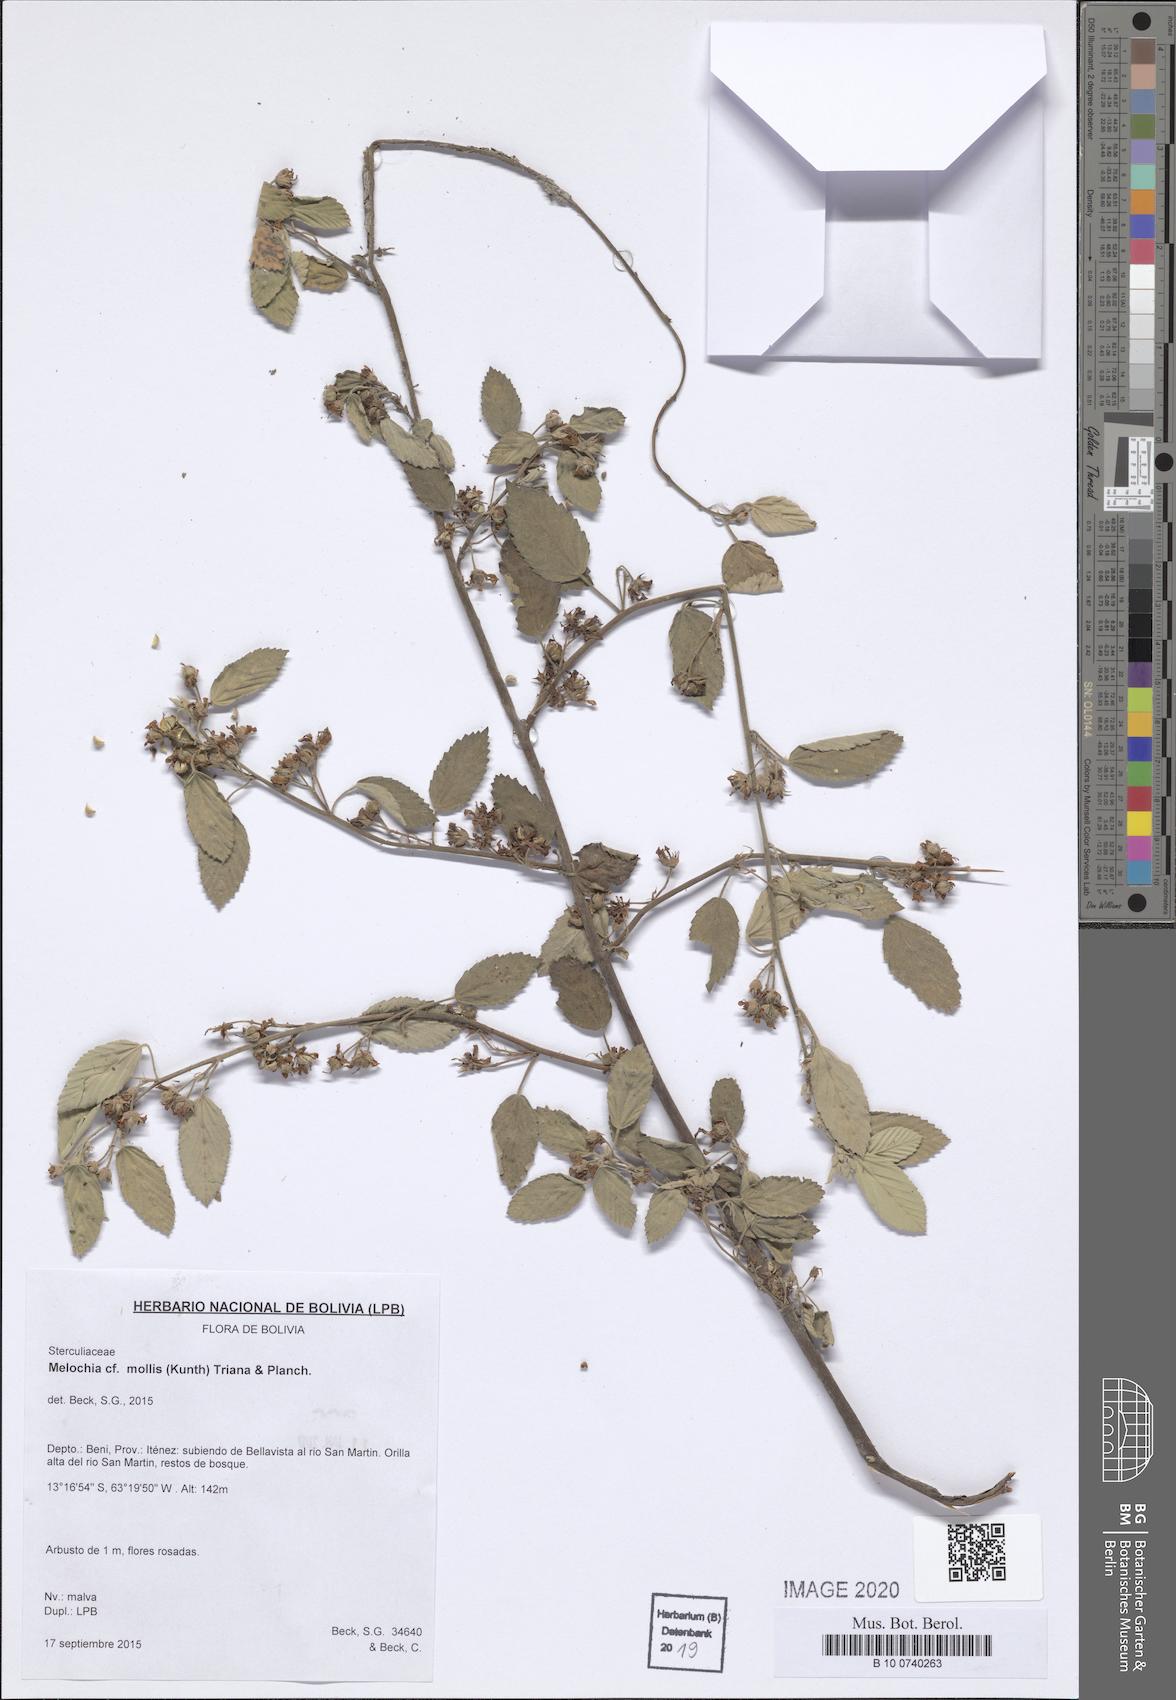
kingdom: Plantae
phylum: Tracheophyta
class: Magnoliopsida
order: Malvales
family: Malvaceae
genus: Melochia
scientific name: Melochia mollis
